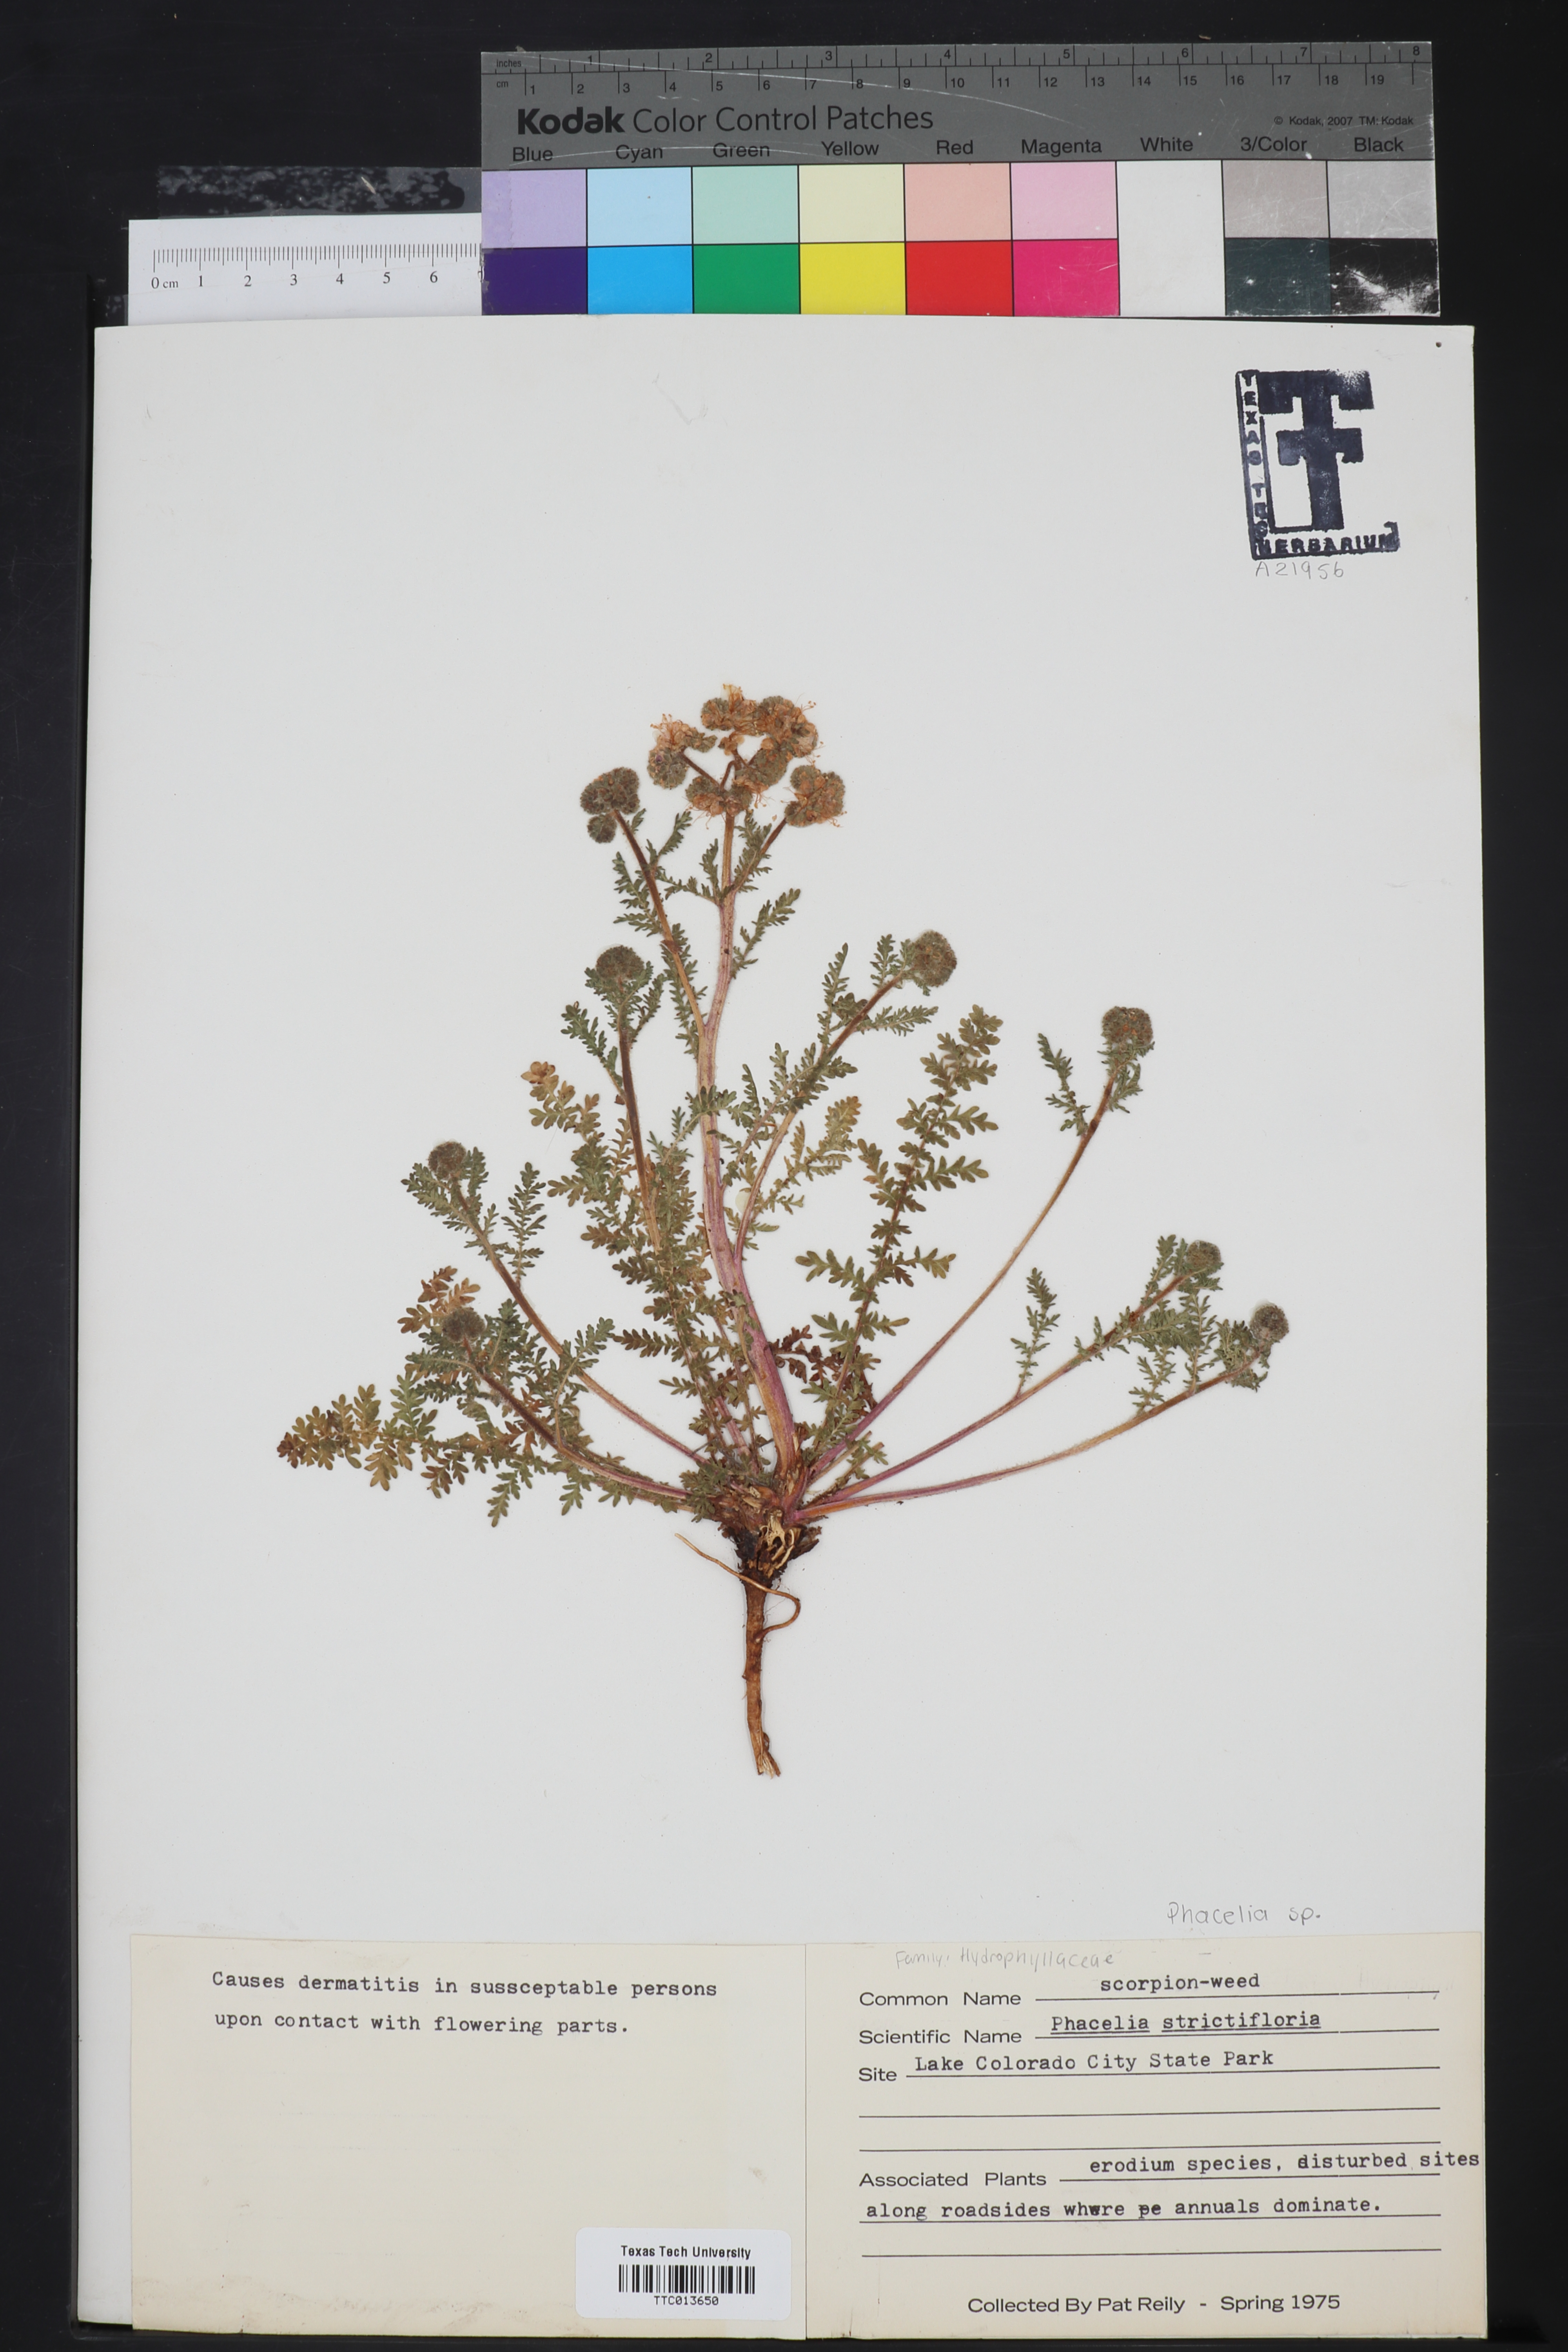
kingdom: Plantae
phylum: Tracheophyta
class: Magnoliopsida
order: Boraginales
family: Hydrophyllaceae
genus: Phacelia
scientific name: Phacelia strictiflora
